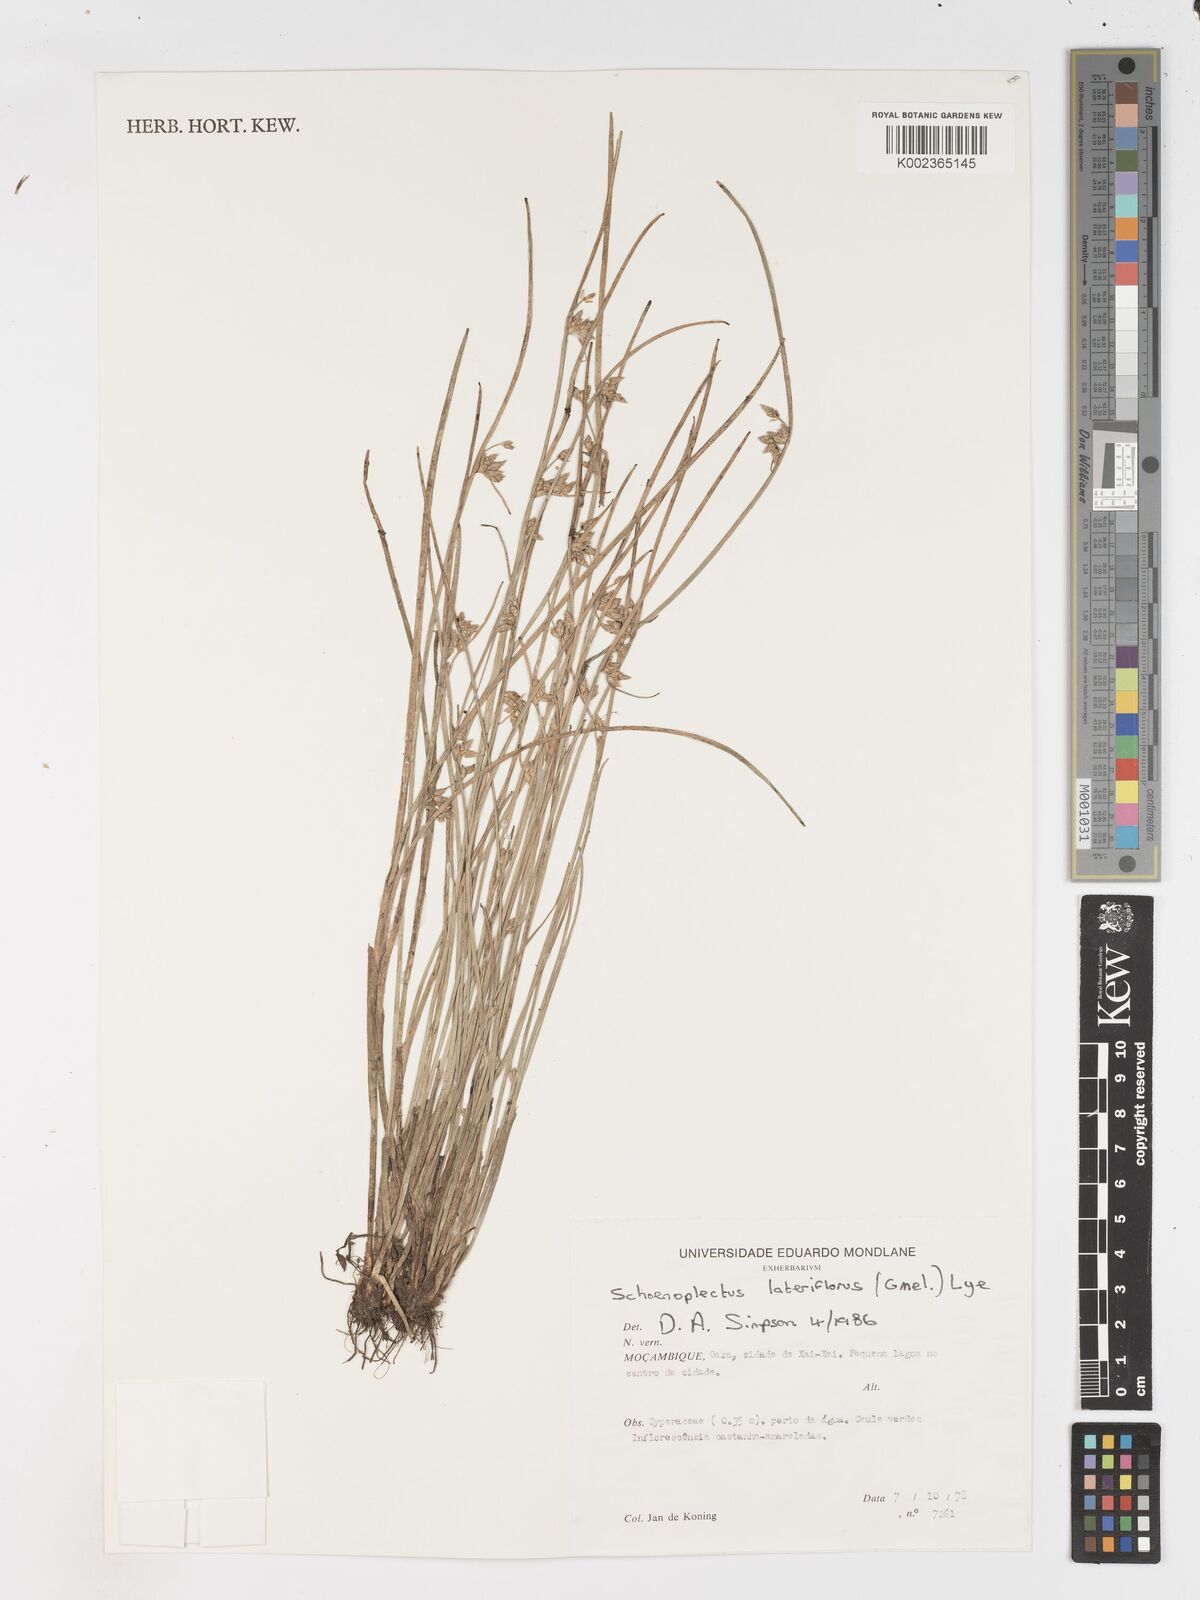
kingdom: Plantae
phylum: Tracheophyta
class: Liliopsida
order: Poales
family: Cyperaceae
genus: Schoenoplectiella
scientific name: Schoenoplectiella lateriflora
